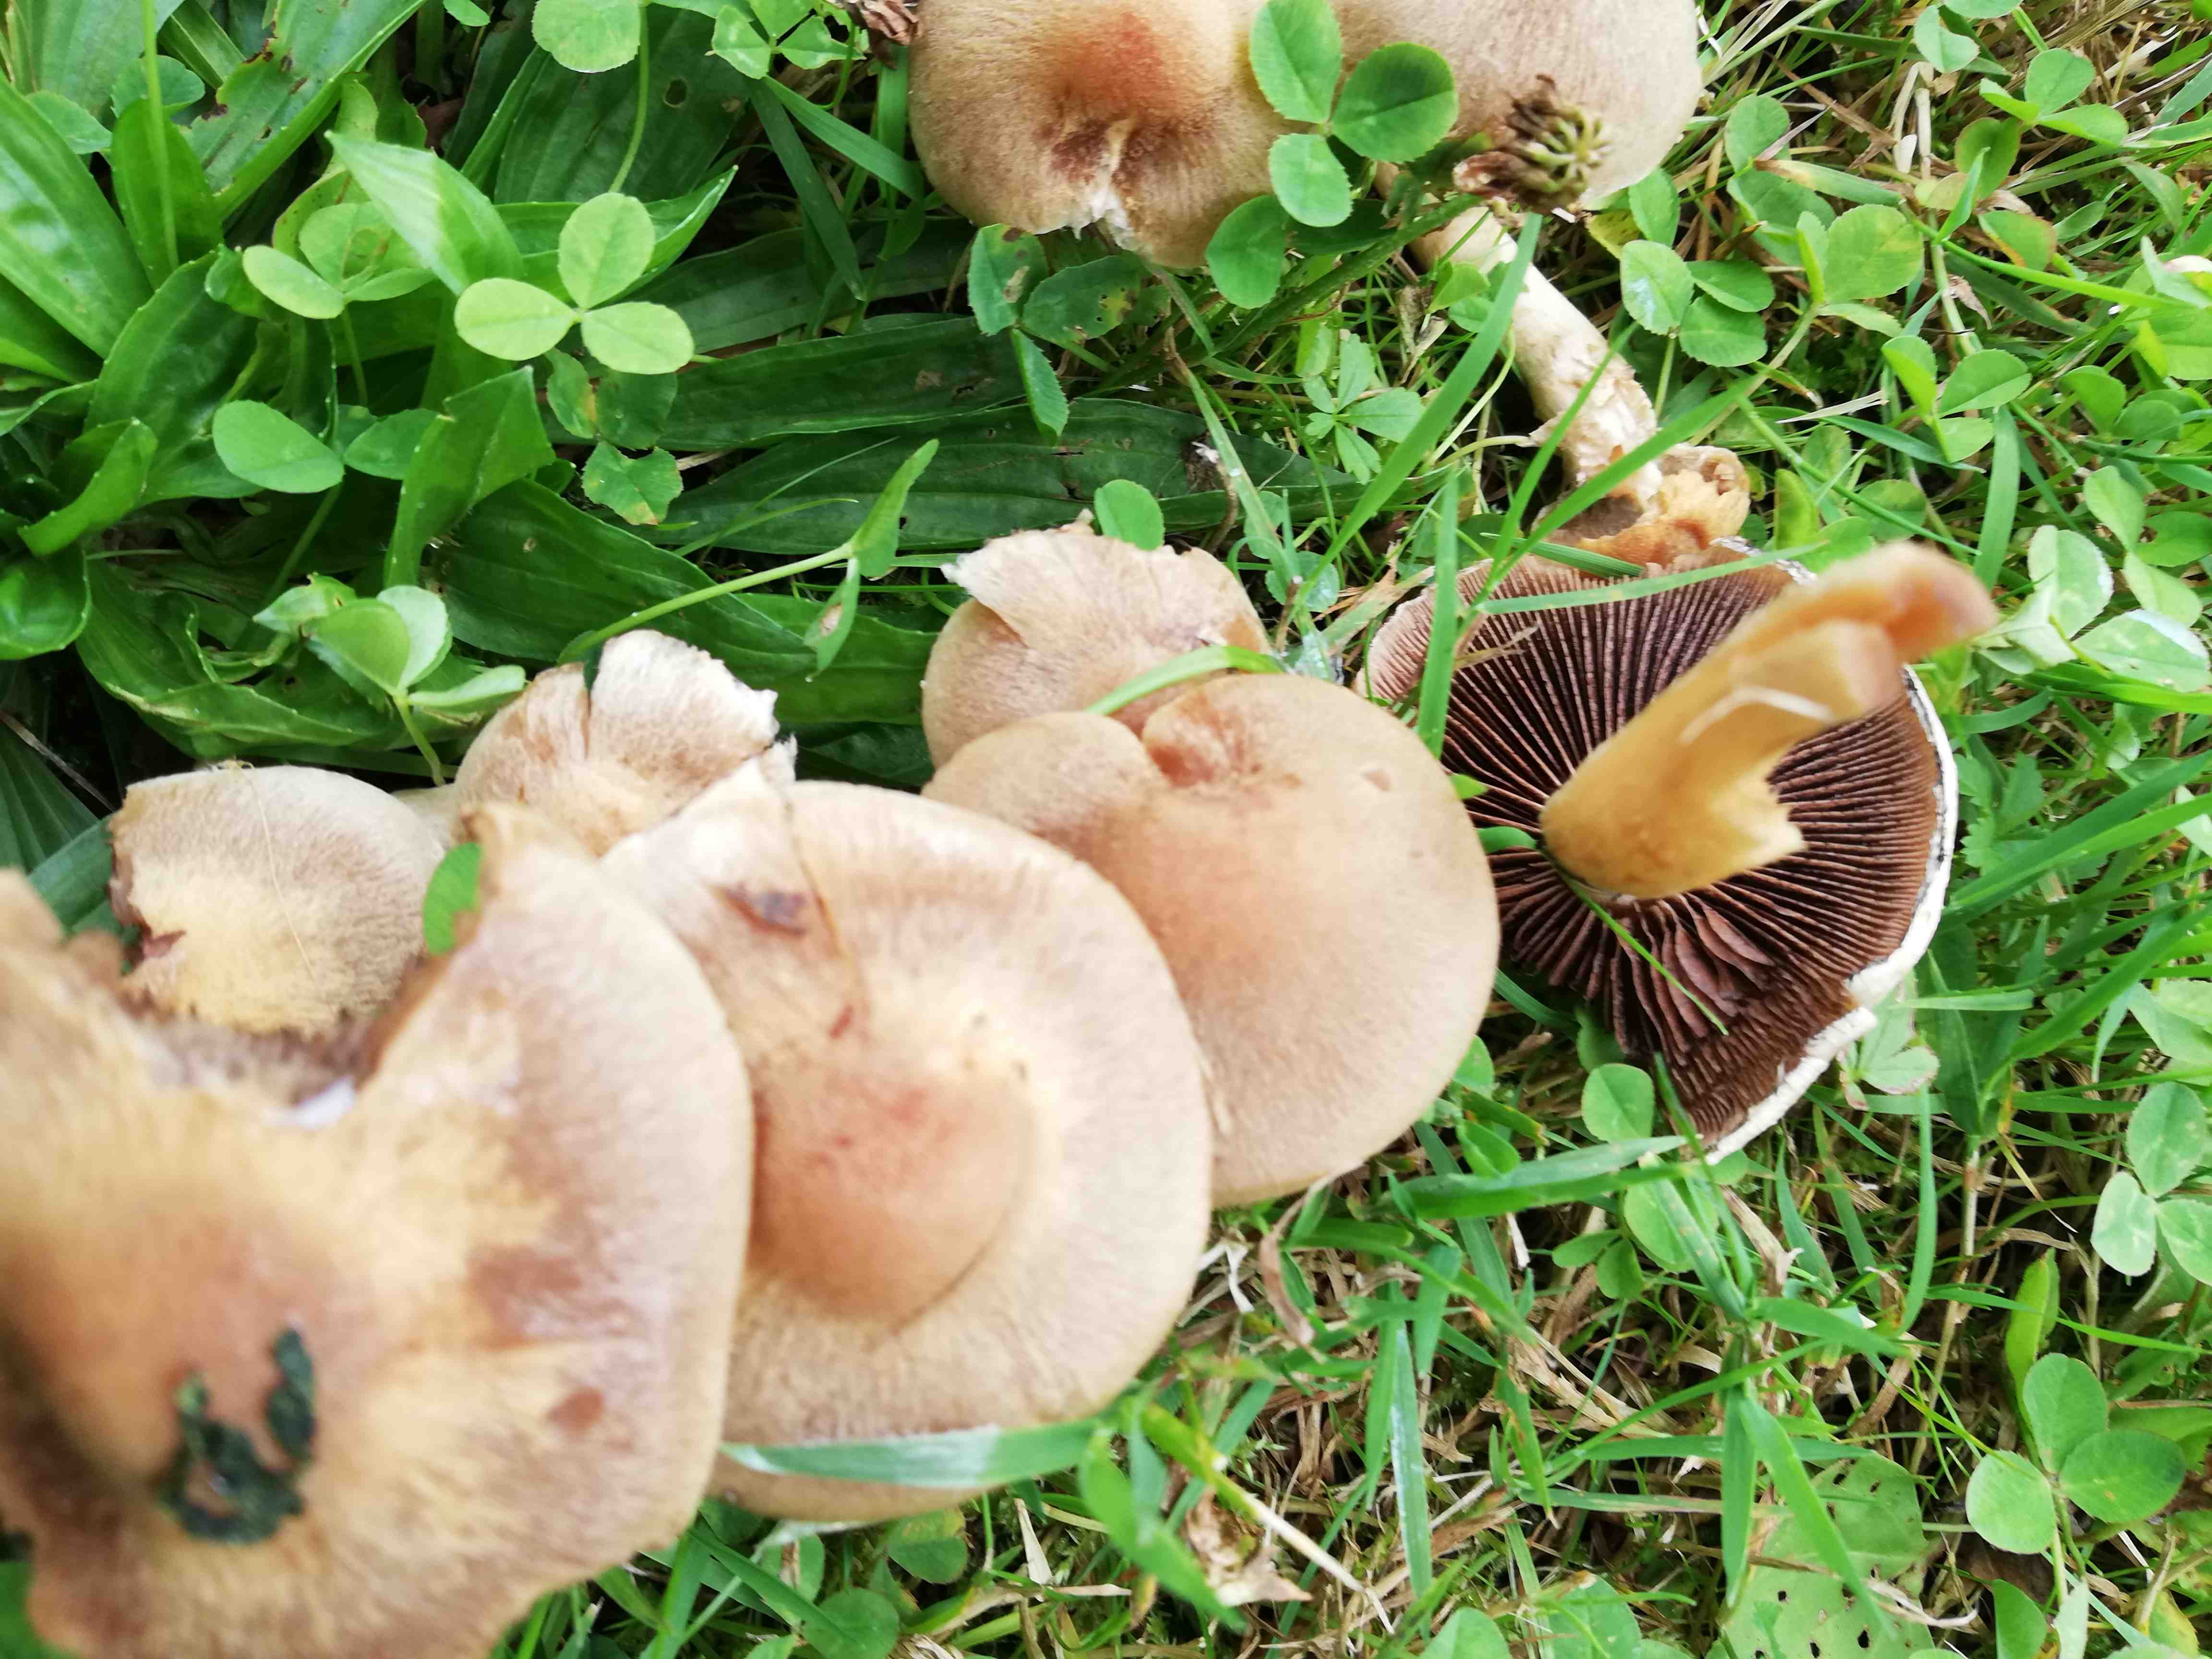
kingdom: Fungi
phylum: Basidiomycota
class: Agaricomycetes
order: Agaricales
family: Psathyrellaceae
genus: Lacrymaria
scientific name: Lacrymaria lacrymabunda
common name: grædende mørkhat
